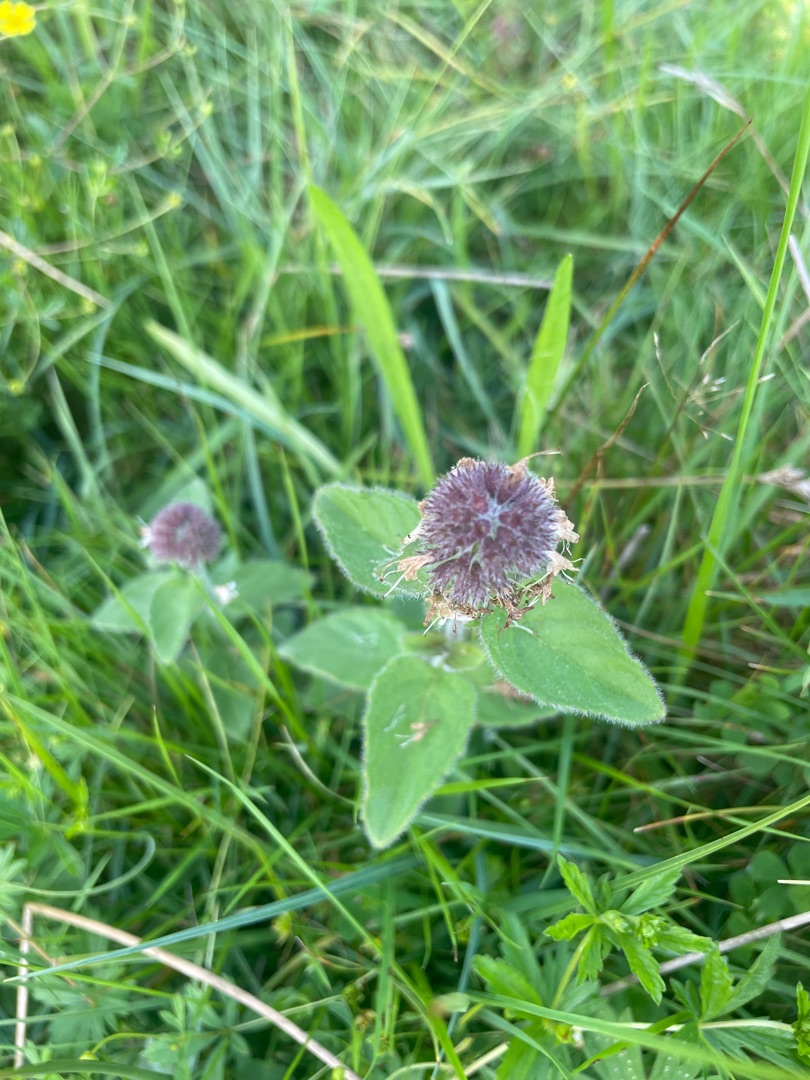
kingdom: Plantae
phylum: Tracheophyta
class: Magnoliopsida
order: Lamiales
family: Lamiaceae
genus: Mentha
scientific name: Mentha aquatica
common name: Vand-mynte
